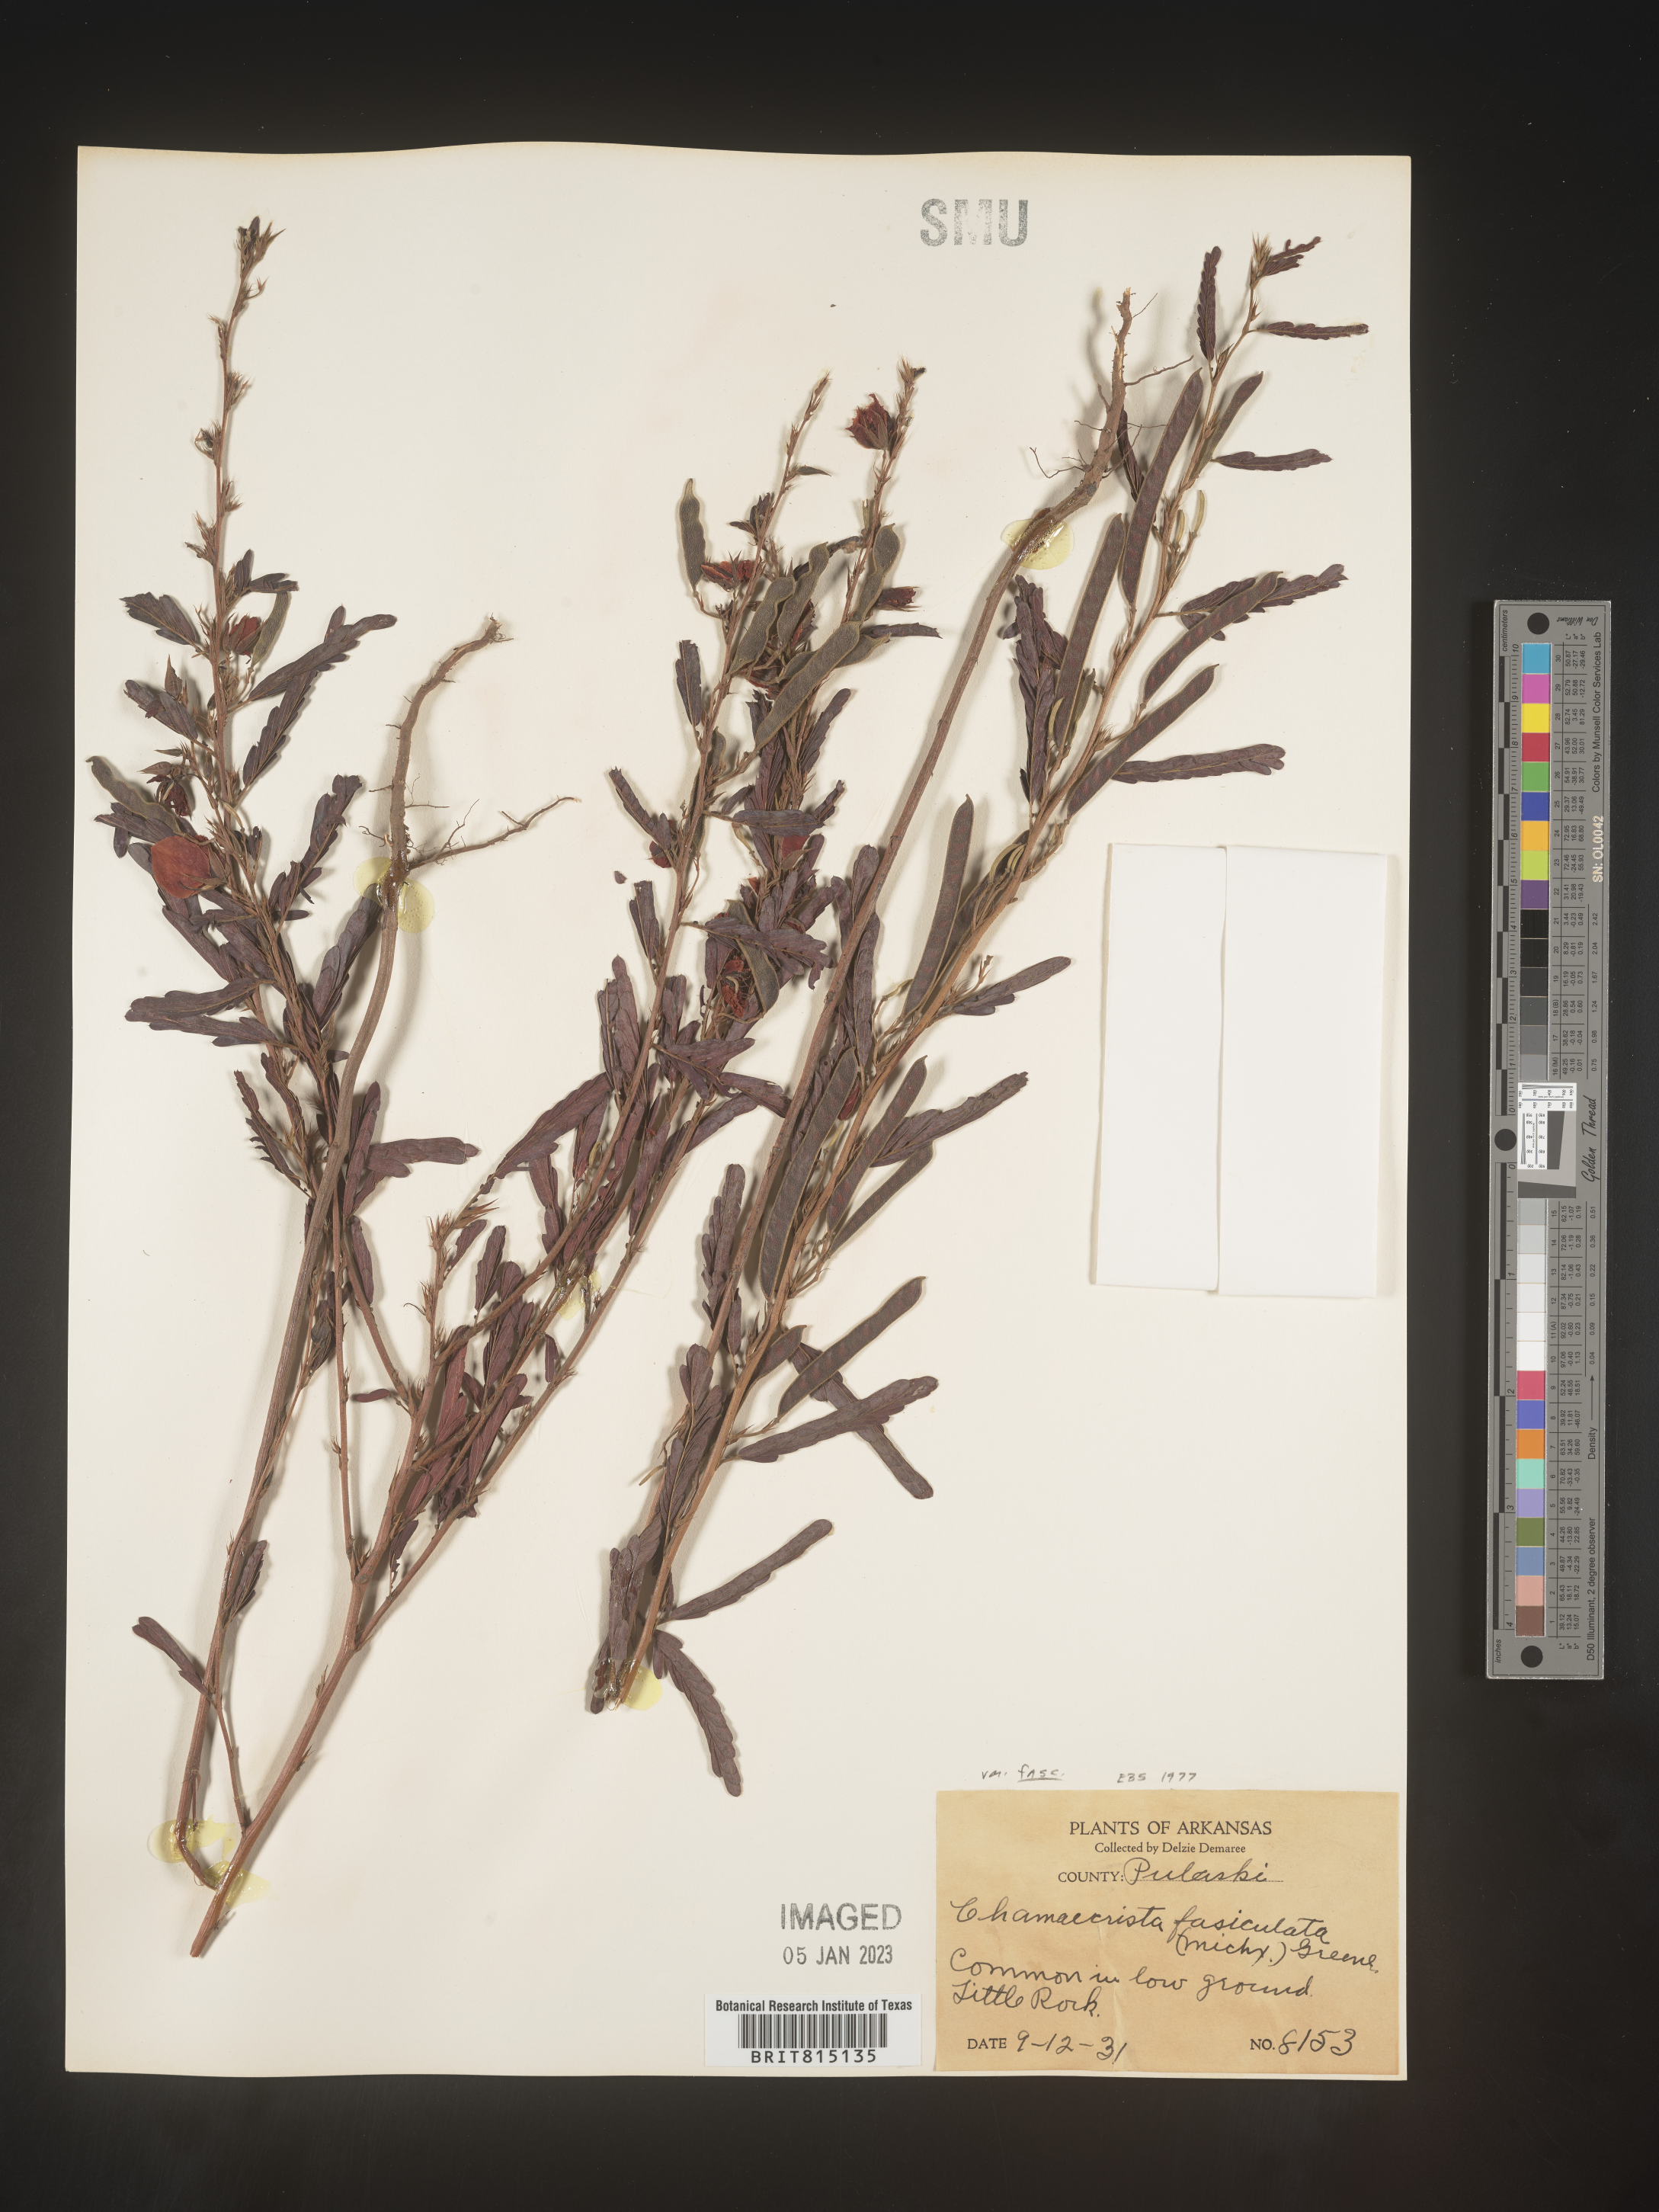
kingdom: Plantae
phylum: Tracheophyta
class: Magnoliopsida
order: Fabales
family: Fabaceae
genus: Chamaecrista
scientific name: Chamaecrista fasciculata
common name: Golden cassia
